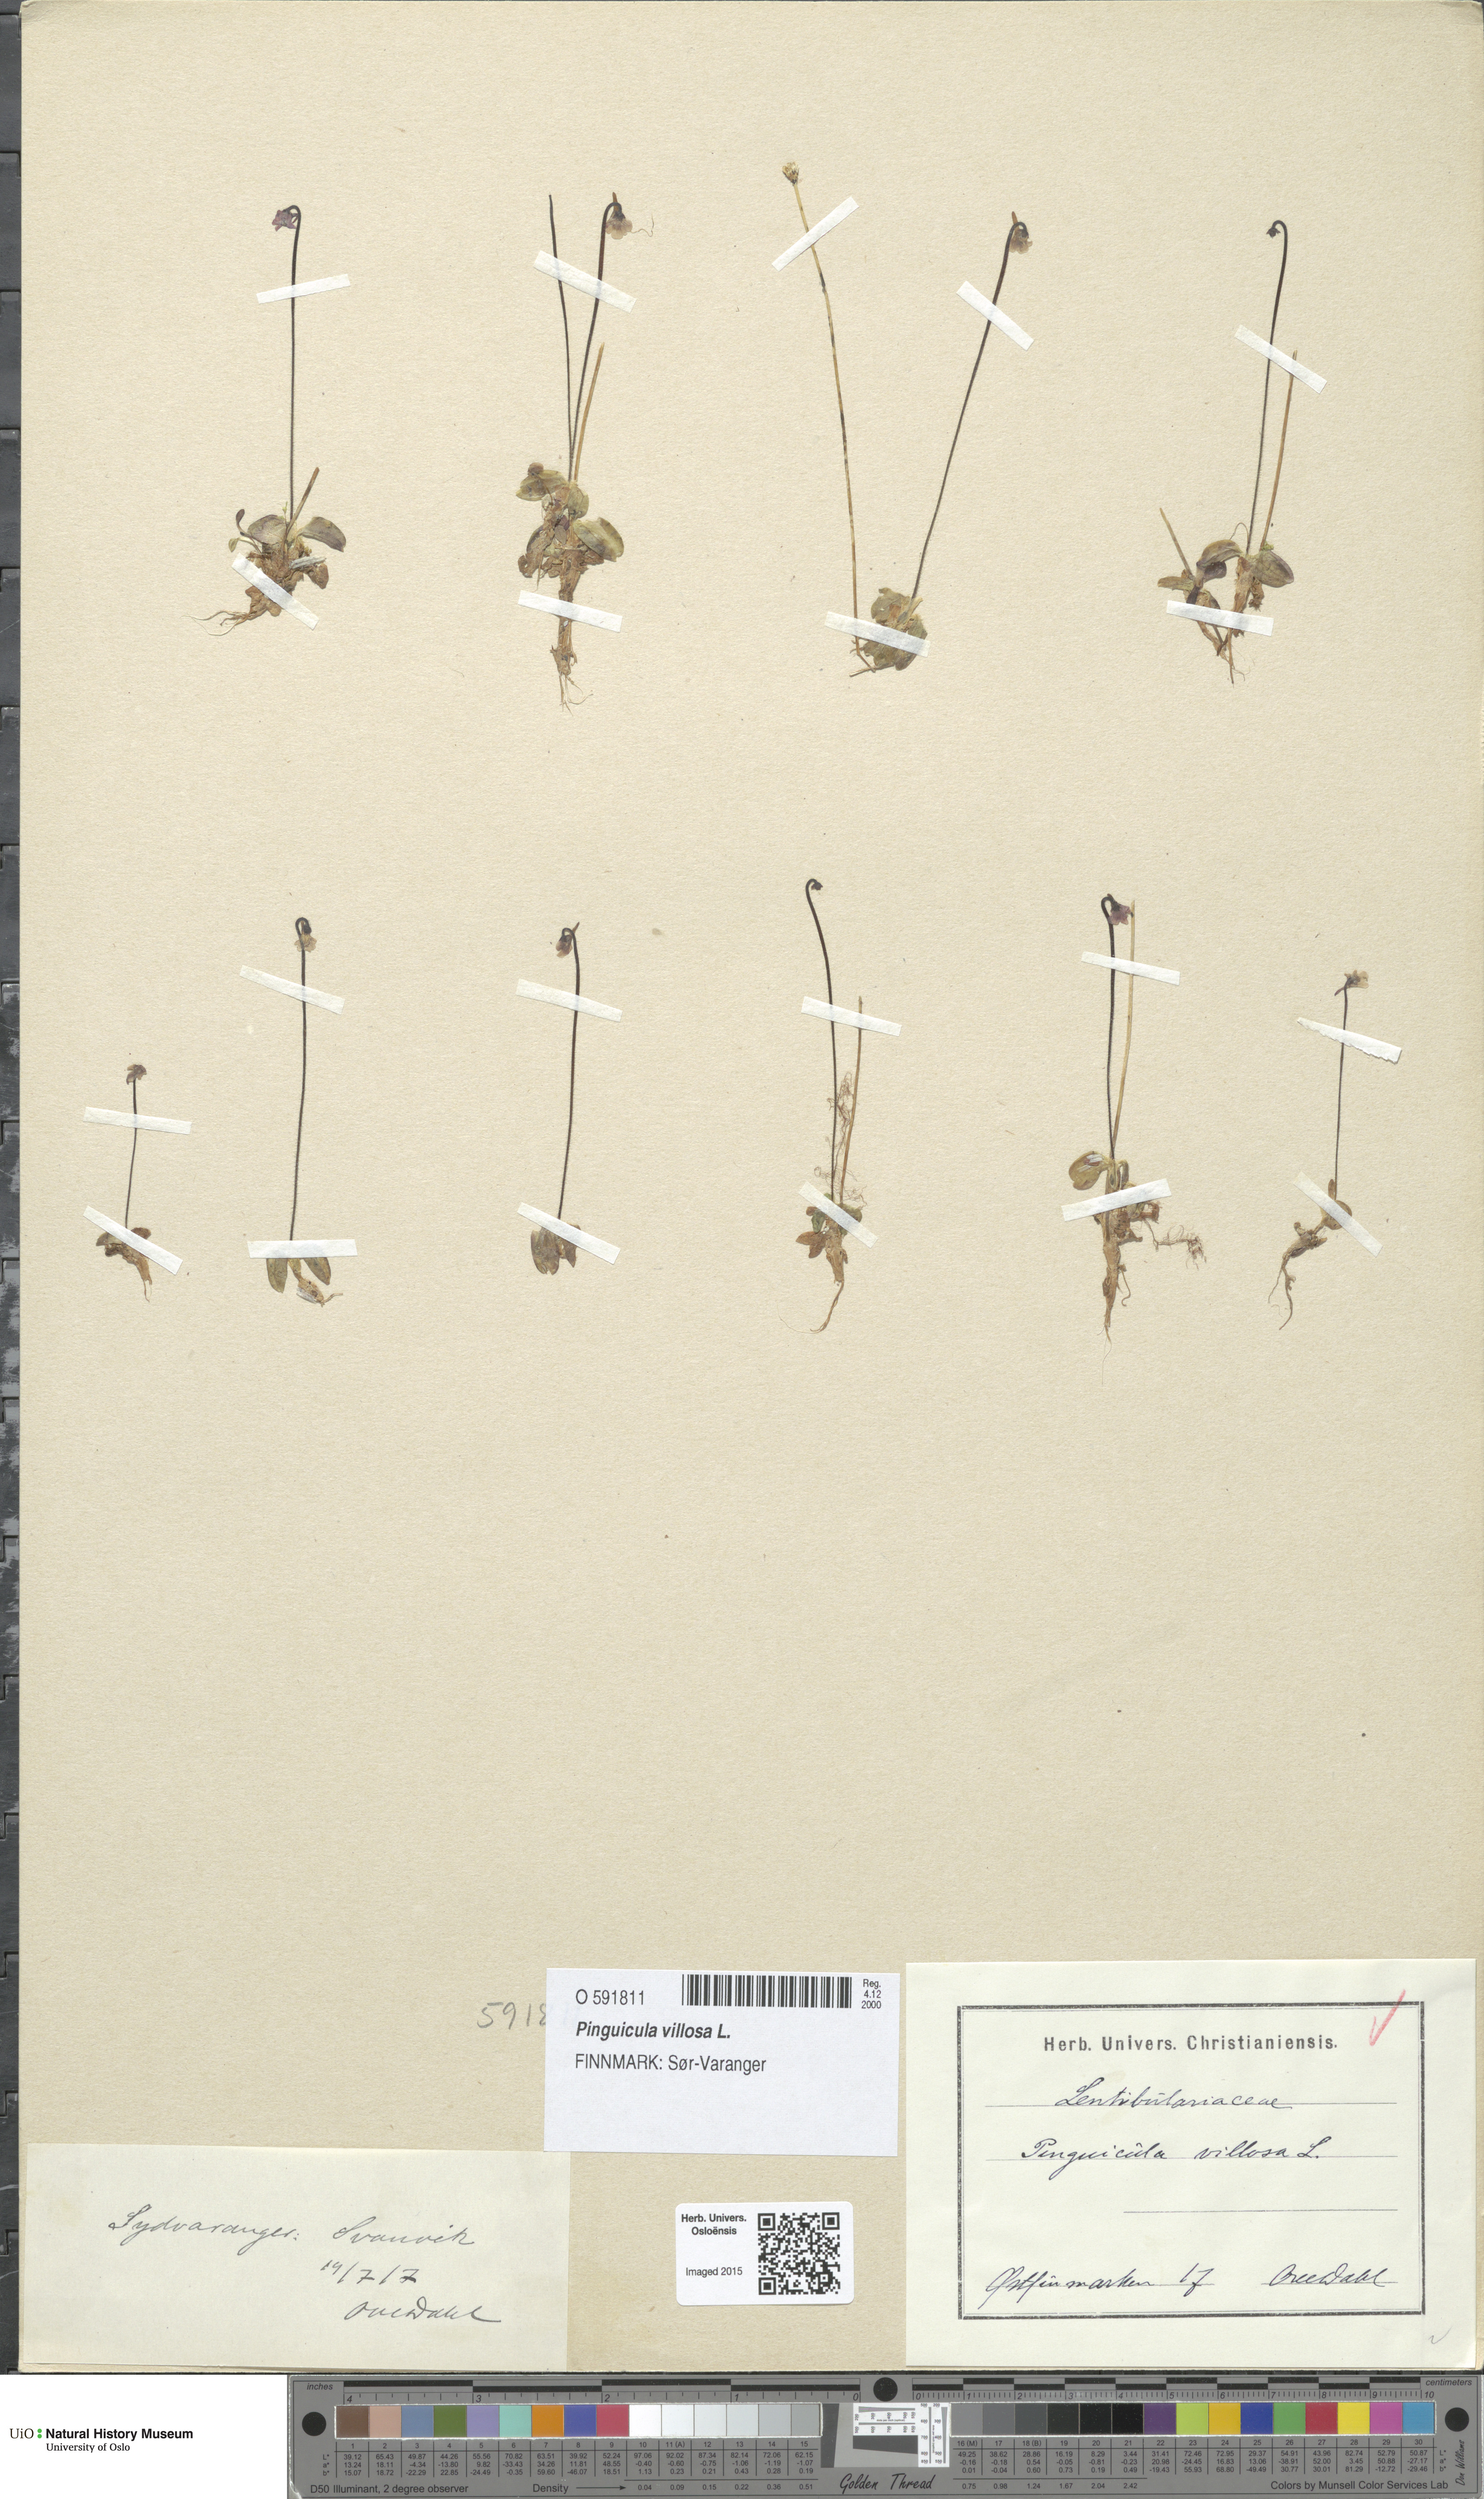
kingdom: Plantae
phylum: Tracheophyta
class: Magnoliopsida
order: Lamiales
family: Lentibulariaceae
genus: Pinguicula
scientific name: Pinguicula villosa
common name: Hairy butterwort
